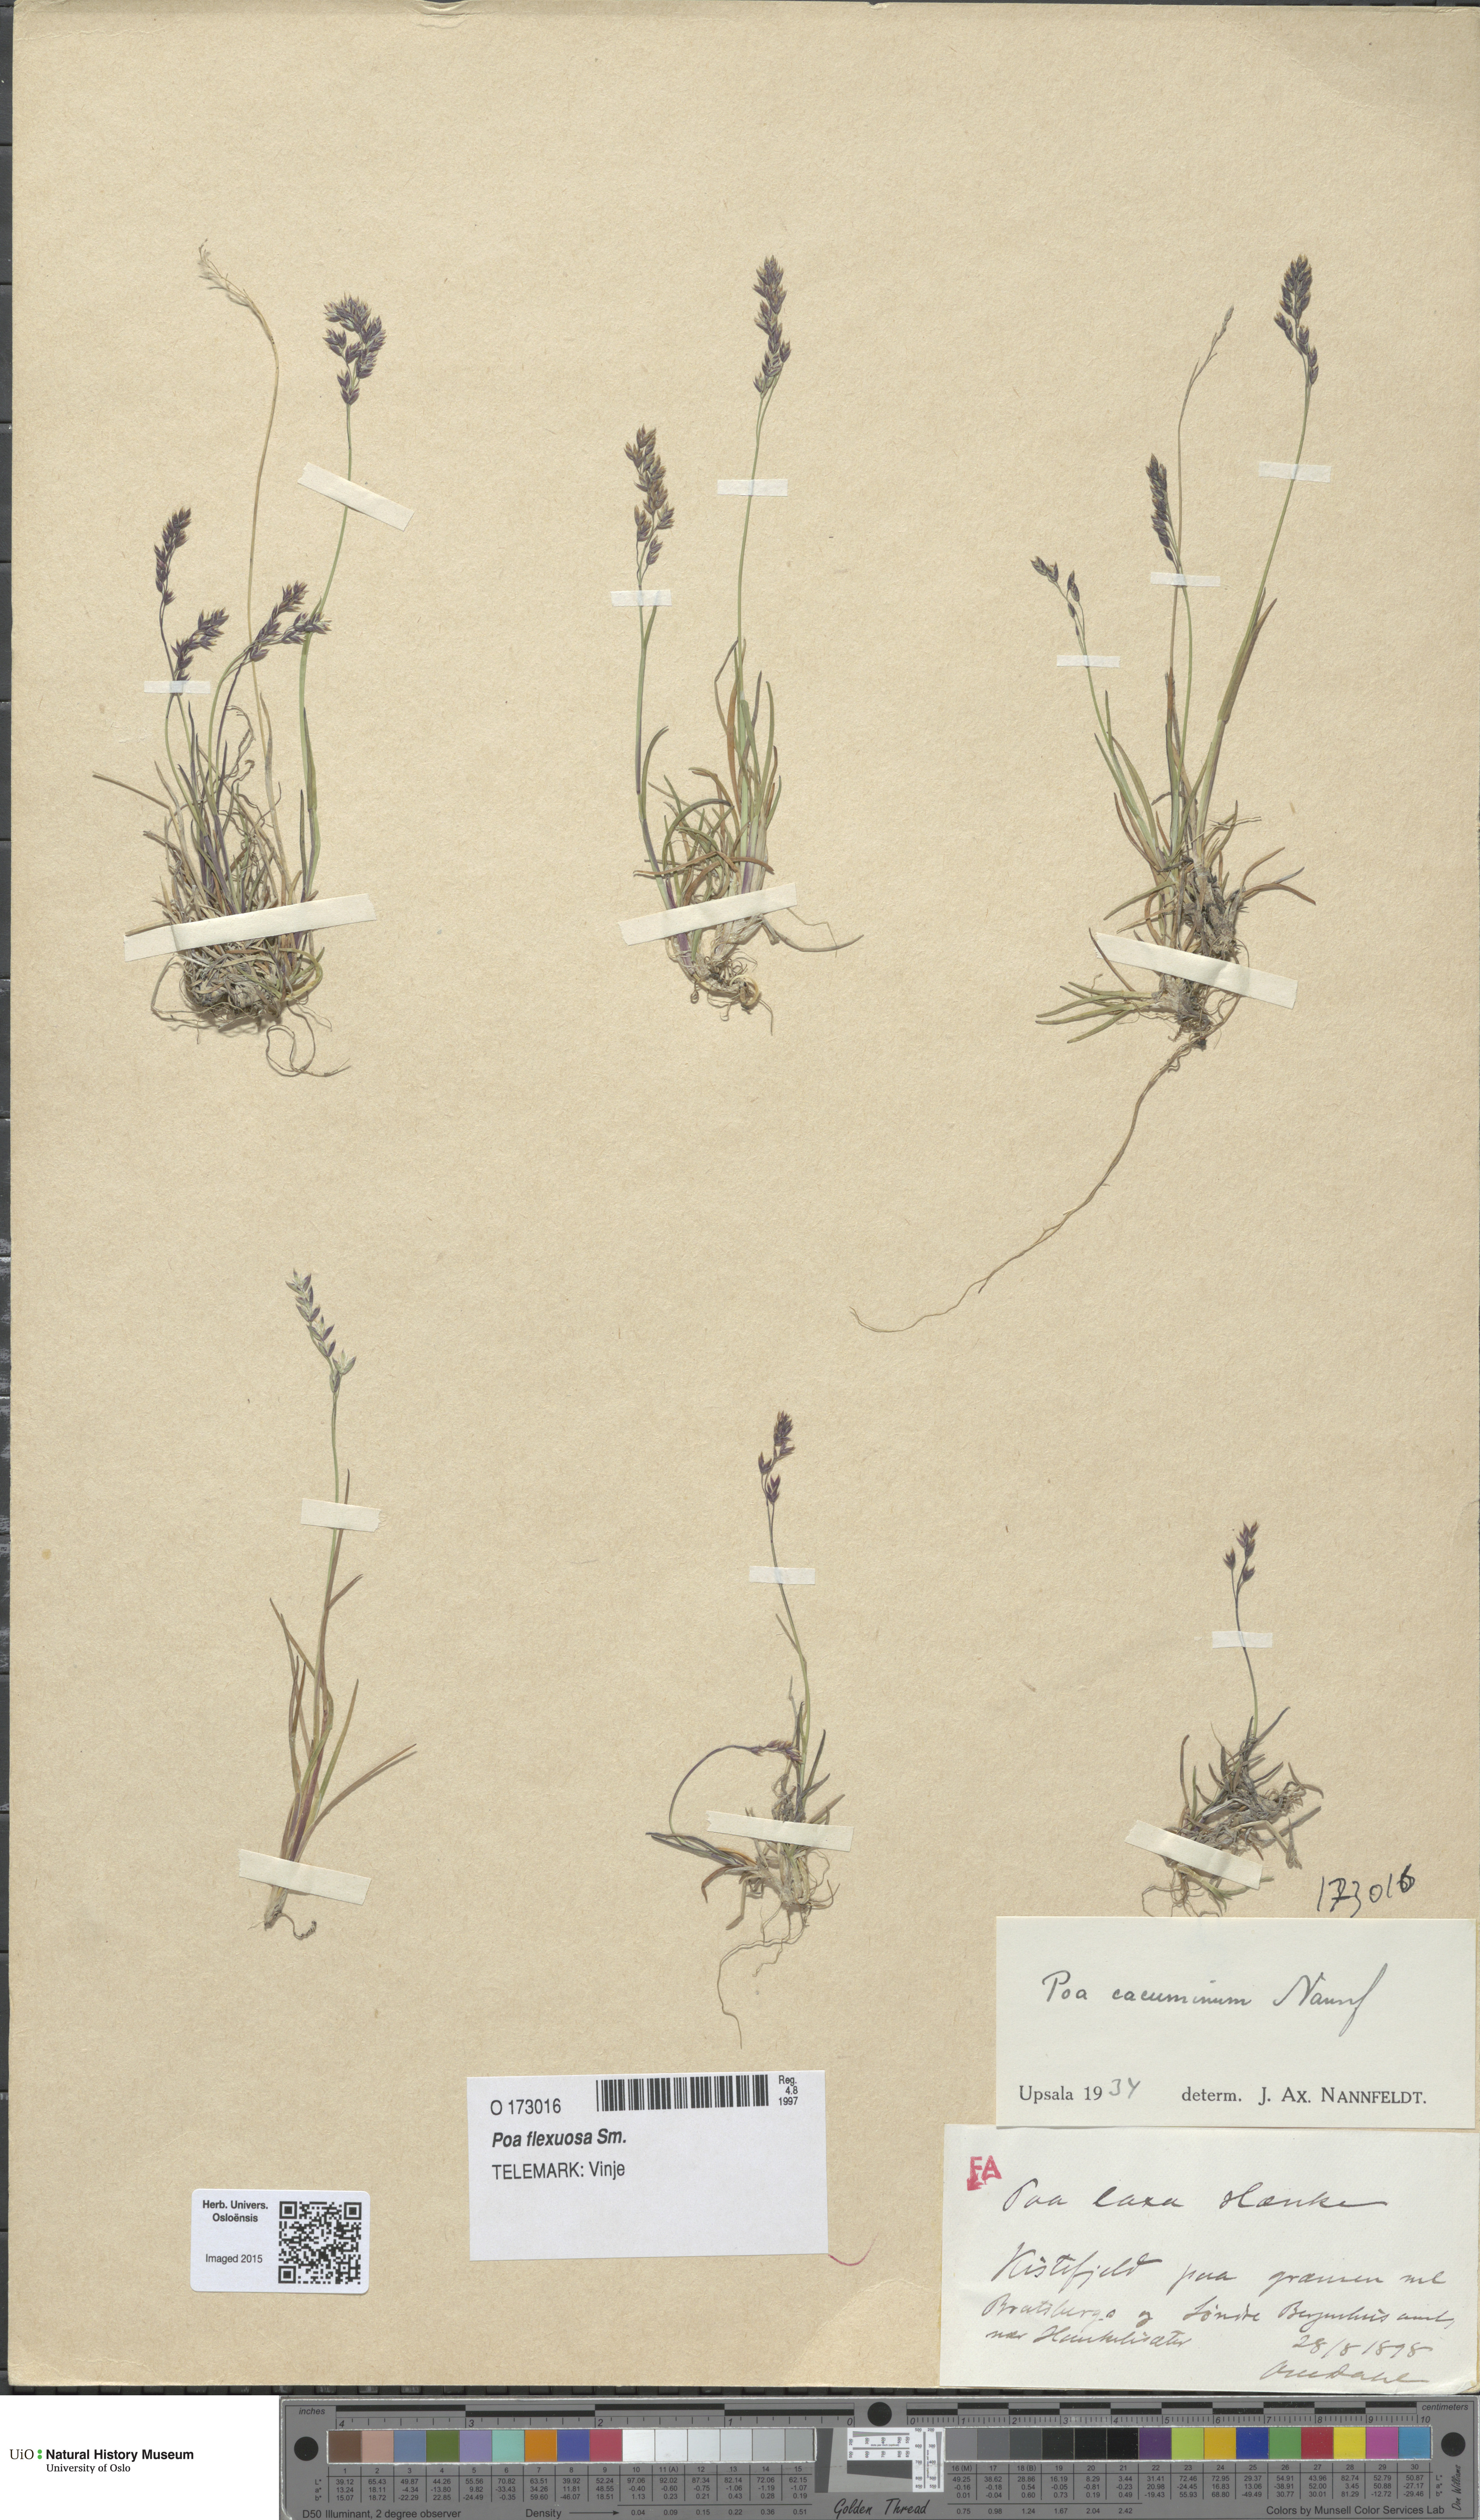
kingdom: Plantae
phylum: Tracheophyta
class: Liliopsida
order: Poales
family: Poaceae
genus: Poa
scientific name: Poa flexuosa
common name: Wavy meadow-grass
